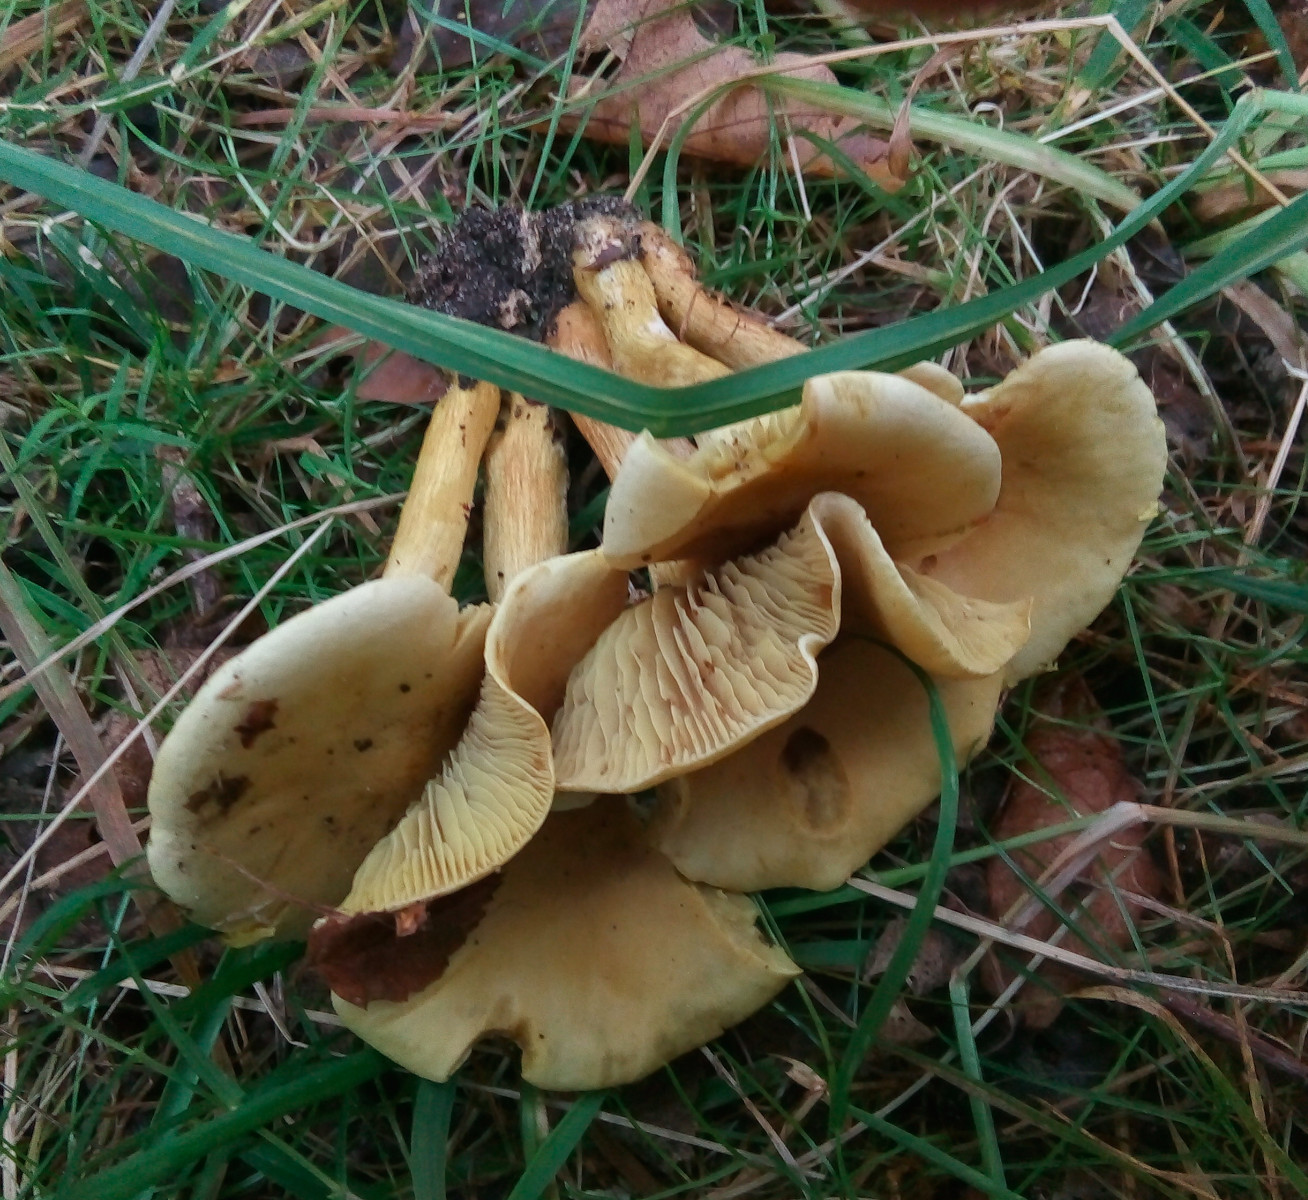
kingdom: Fungi
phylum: Basidiomycota
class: Agaricomycetes
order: Agaricales
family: Tricholomataceae
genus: Tricholoma
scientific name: Tricholoma sulphureum
